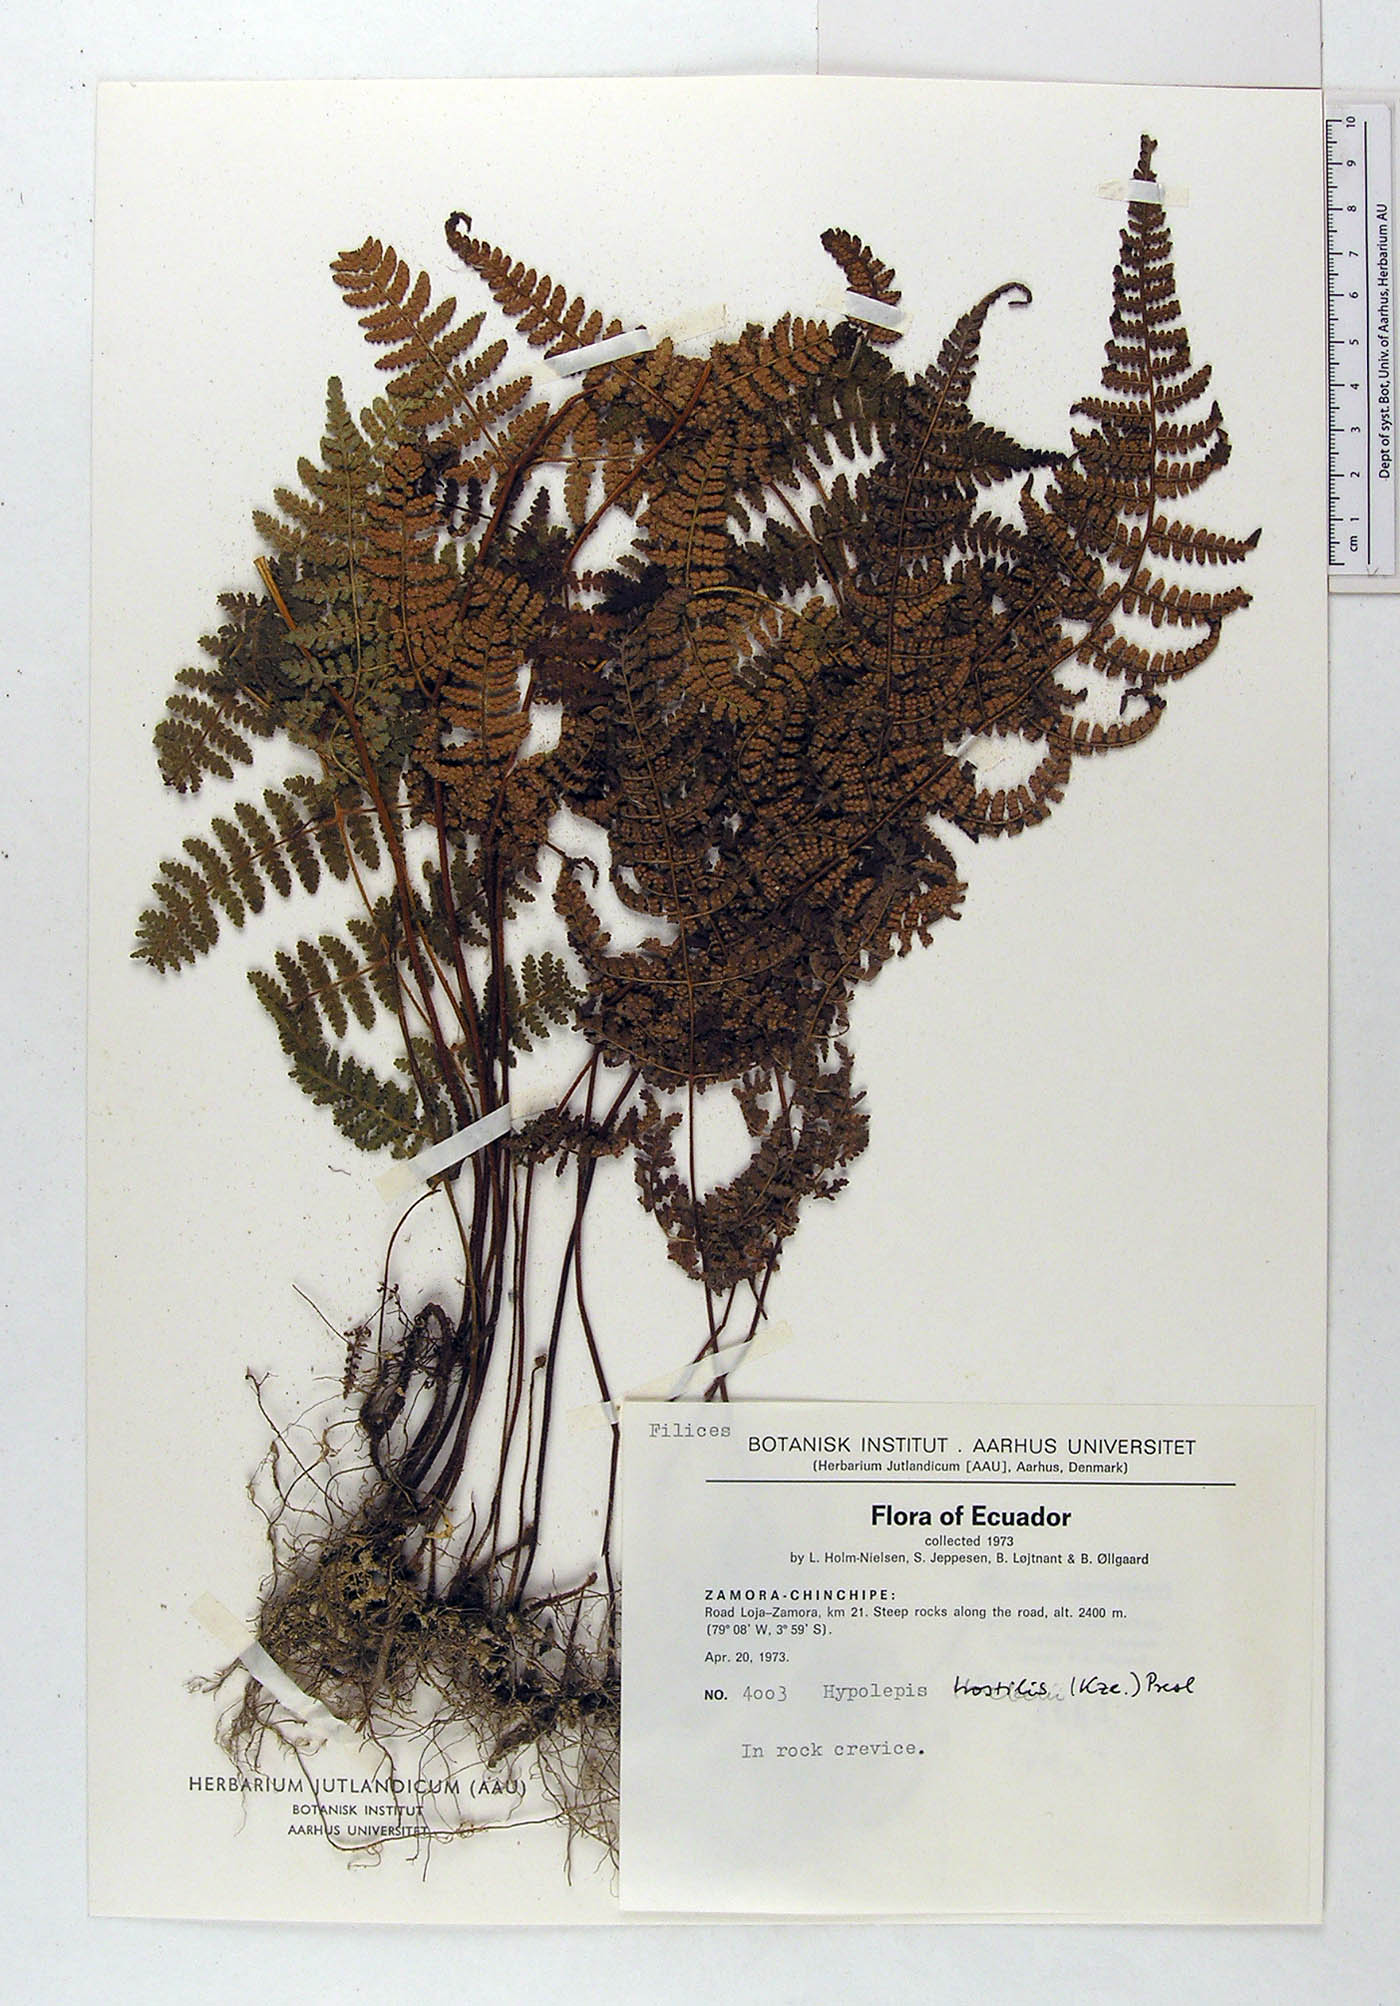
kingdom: Plantae
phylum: Tracheophyta
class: Polypodiopsida
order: Polypodiales
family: Dennstaedtiaceae
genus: Hypolepis
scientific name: Hypolepis hostilis
